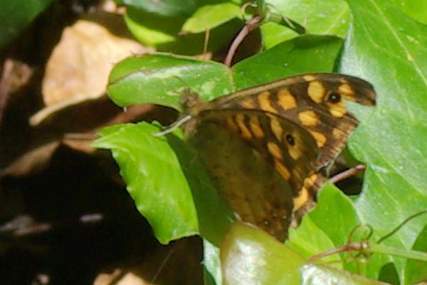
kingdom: Animalia
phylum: Arthropoda
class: Insecta
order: Lepidoptera
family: Nymphalidae
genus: Pararge
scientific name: Pararge aegeria
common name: Speckled wood
